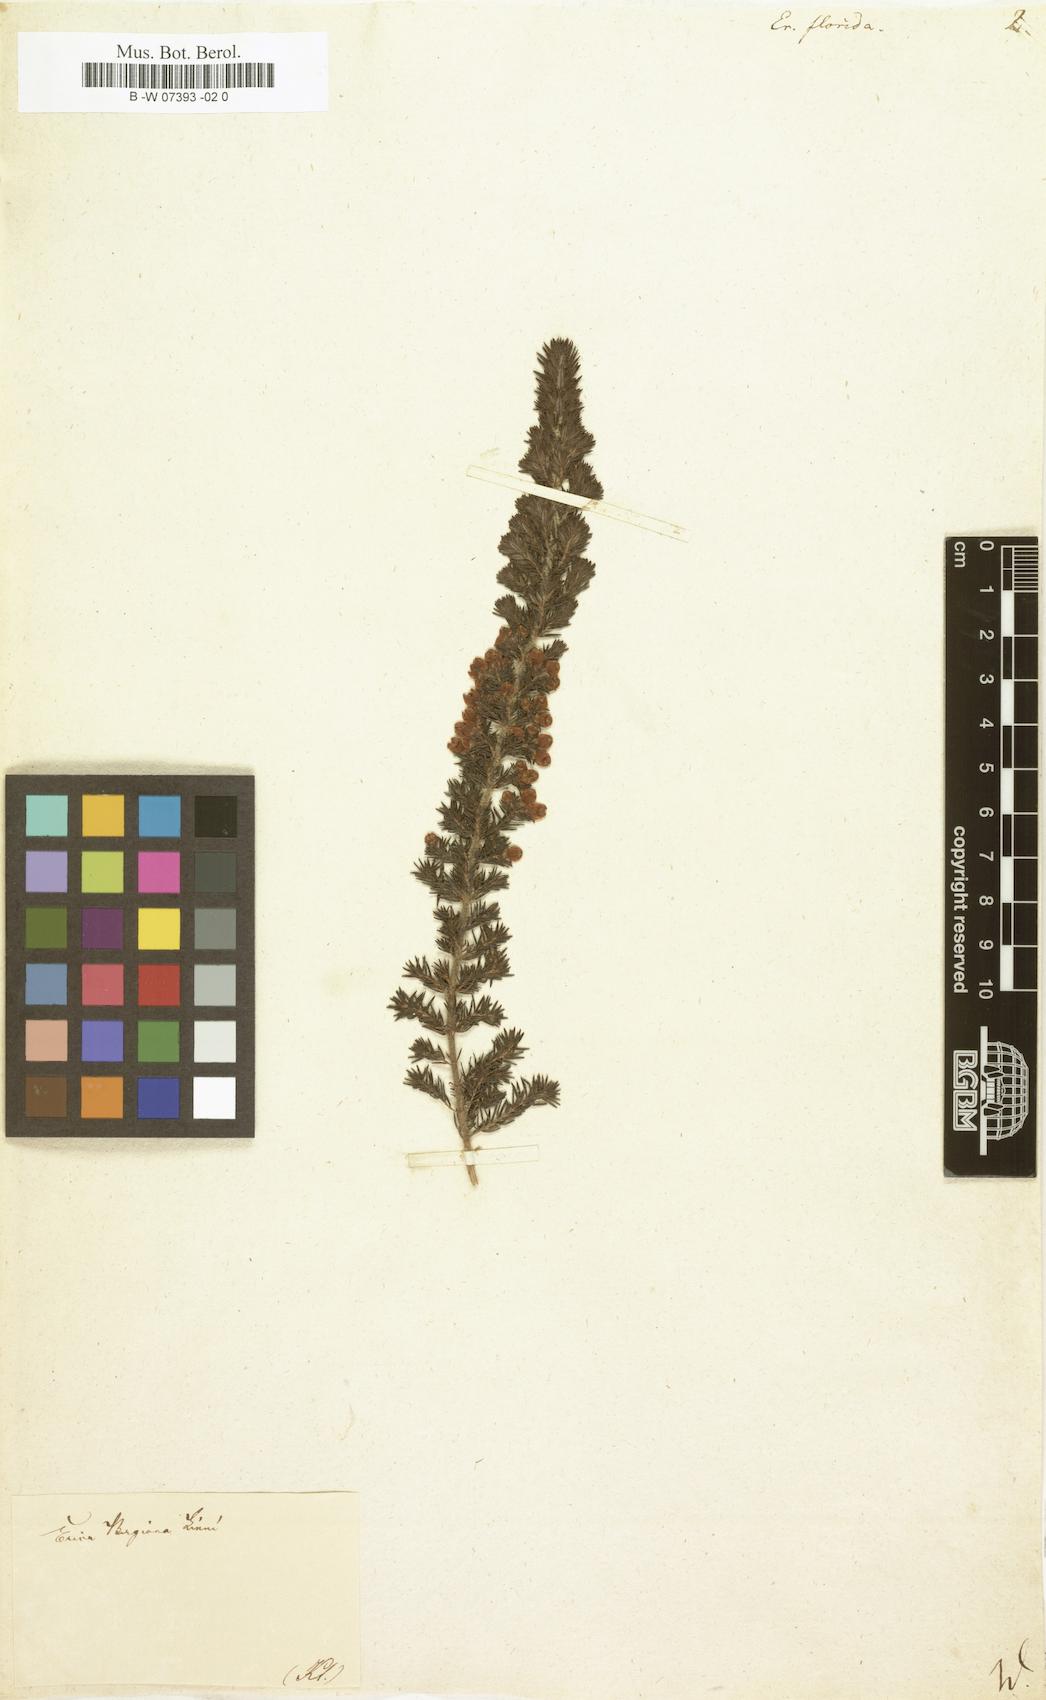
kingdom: Plantae
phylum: Tracheophyta
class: Magnoliopsida
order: Ericales
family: Ericaceae
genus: Erica
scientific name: Erica bergiana
